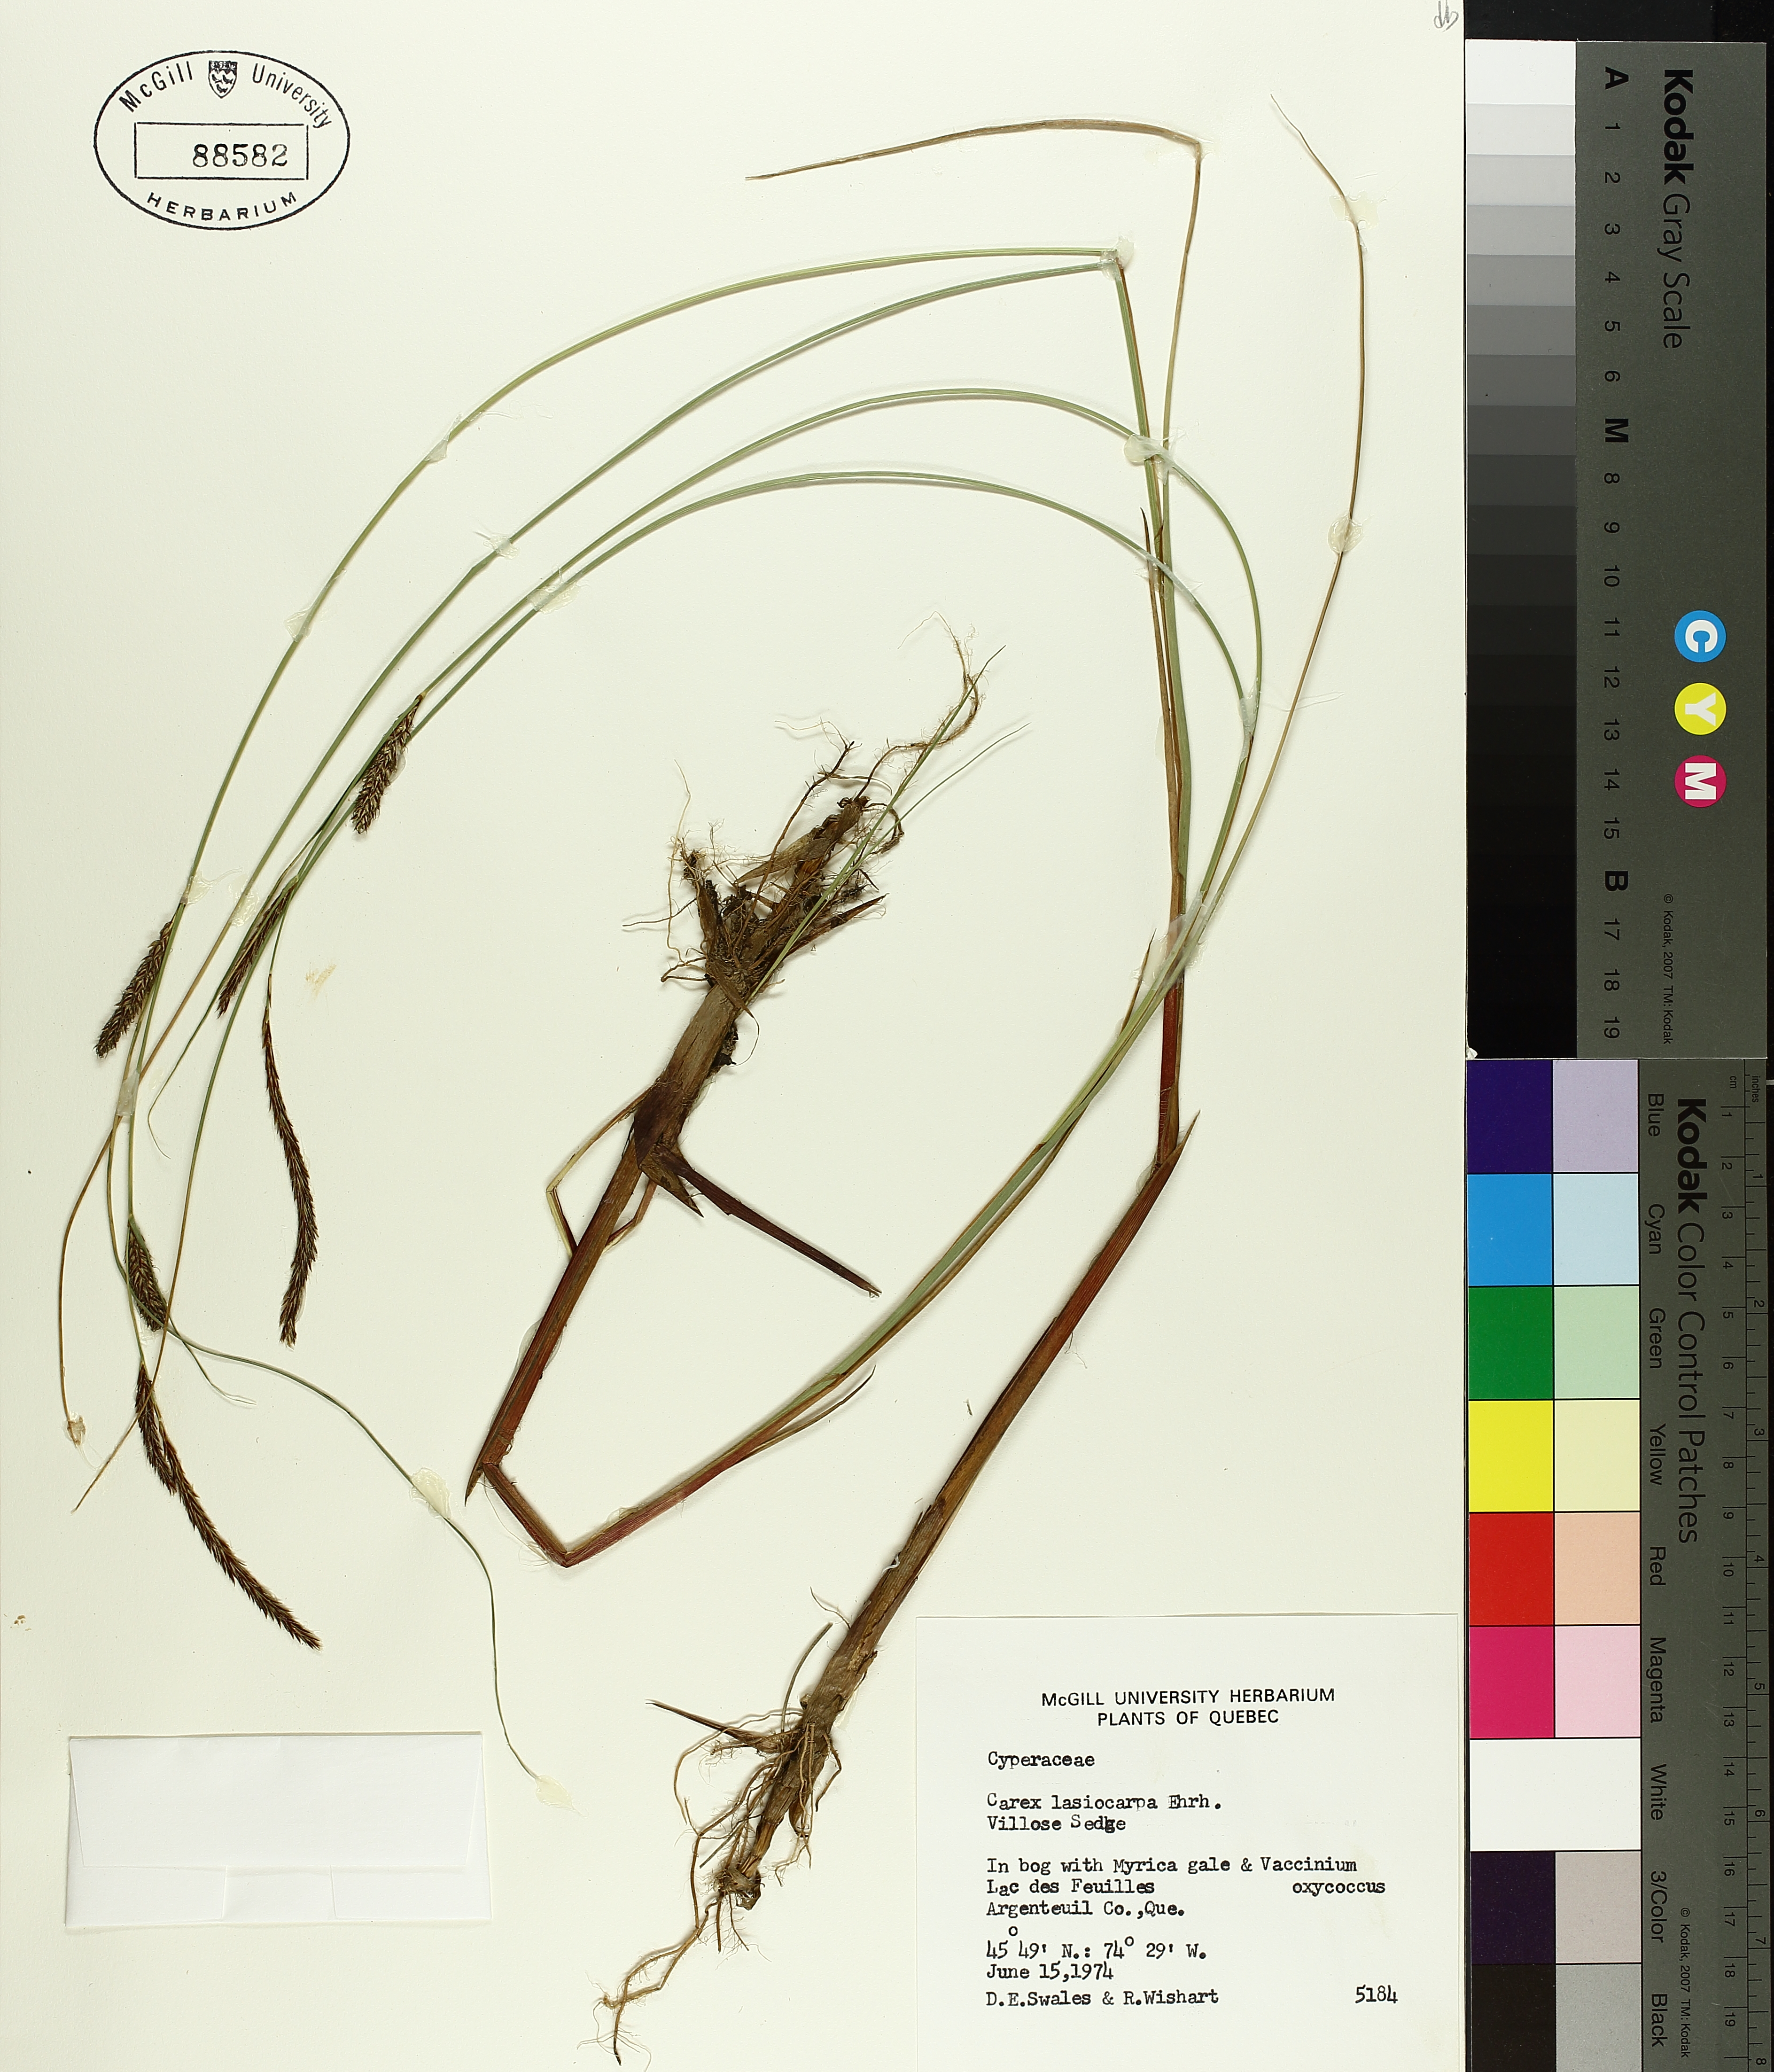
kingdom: Plantae
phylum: Tracheophyta
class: Liliopsida
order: Poales
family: Cyperaceae
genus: Carex
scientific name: Carex lasiocarpa
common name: Slender sedge
